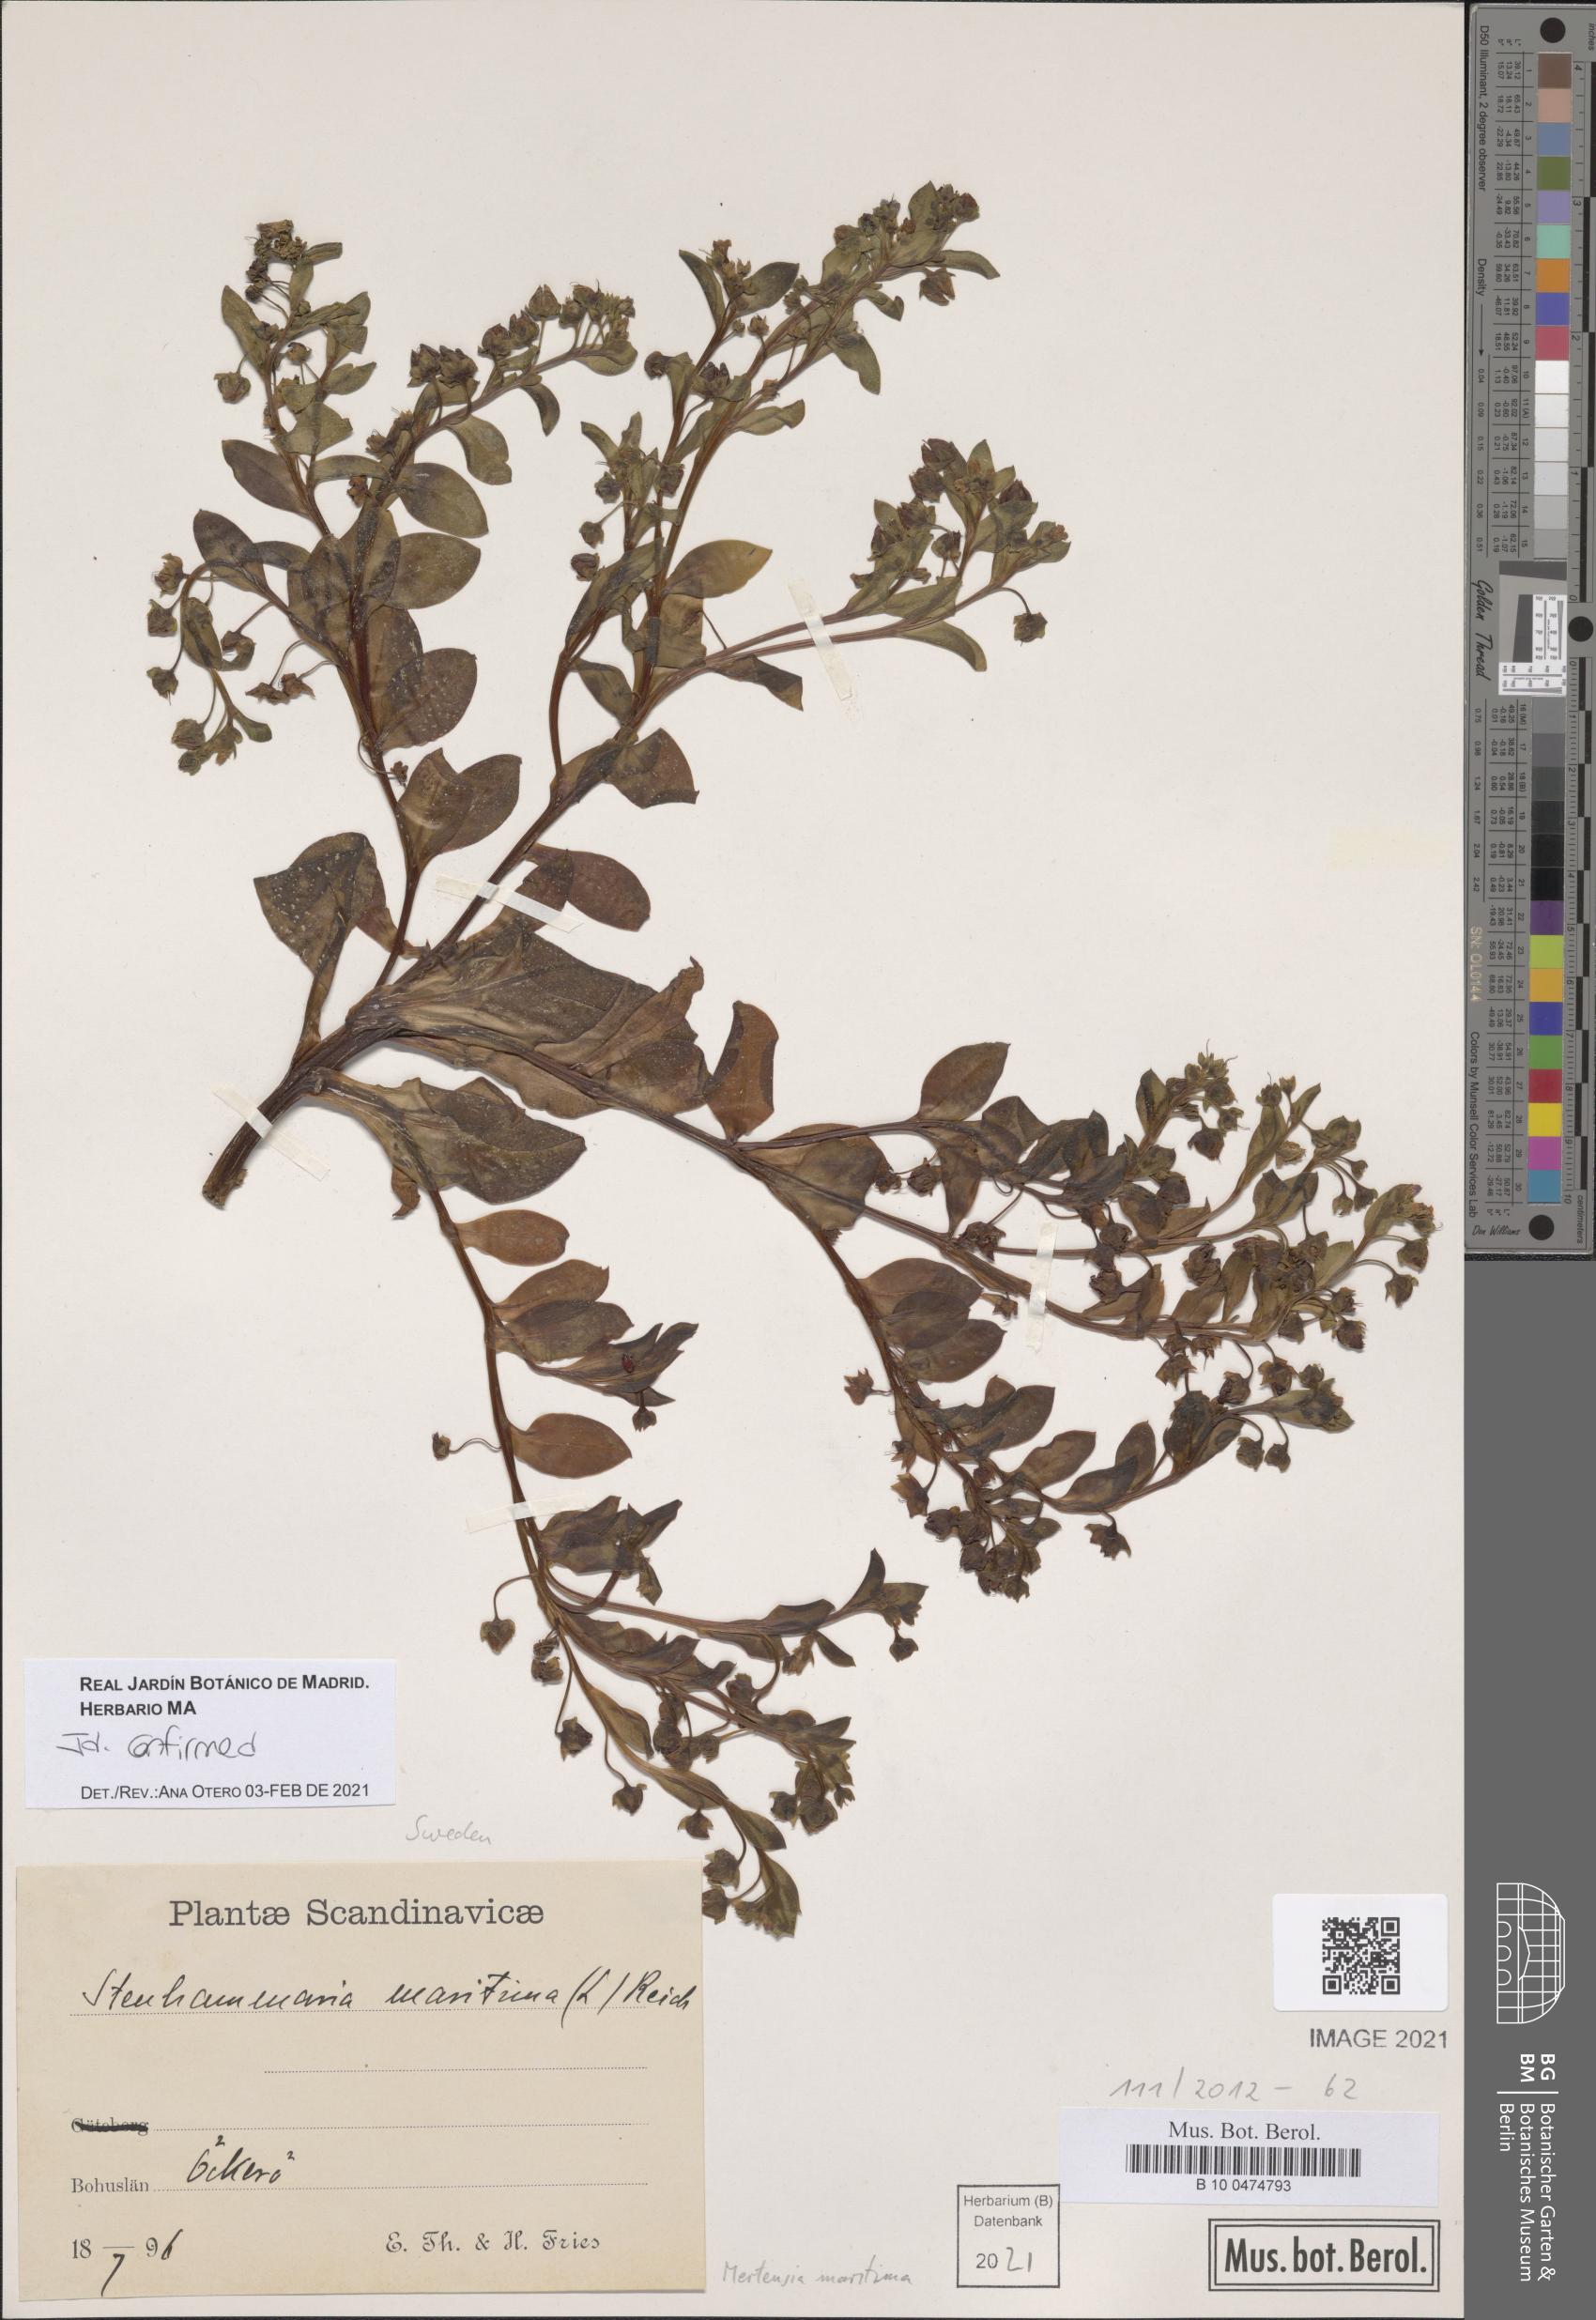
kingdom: Plantae
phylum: Tracheophyta
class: Magnoliopsida
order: Boraginales
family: Boraginaceae
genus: Mertensia
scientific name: Mertensia maritima
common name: Oysterplant
